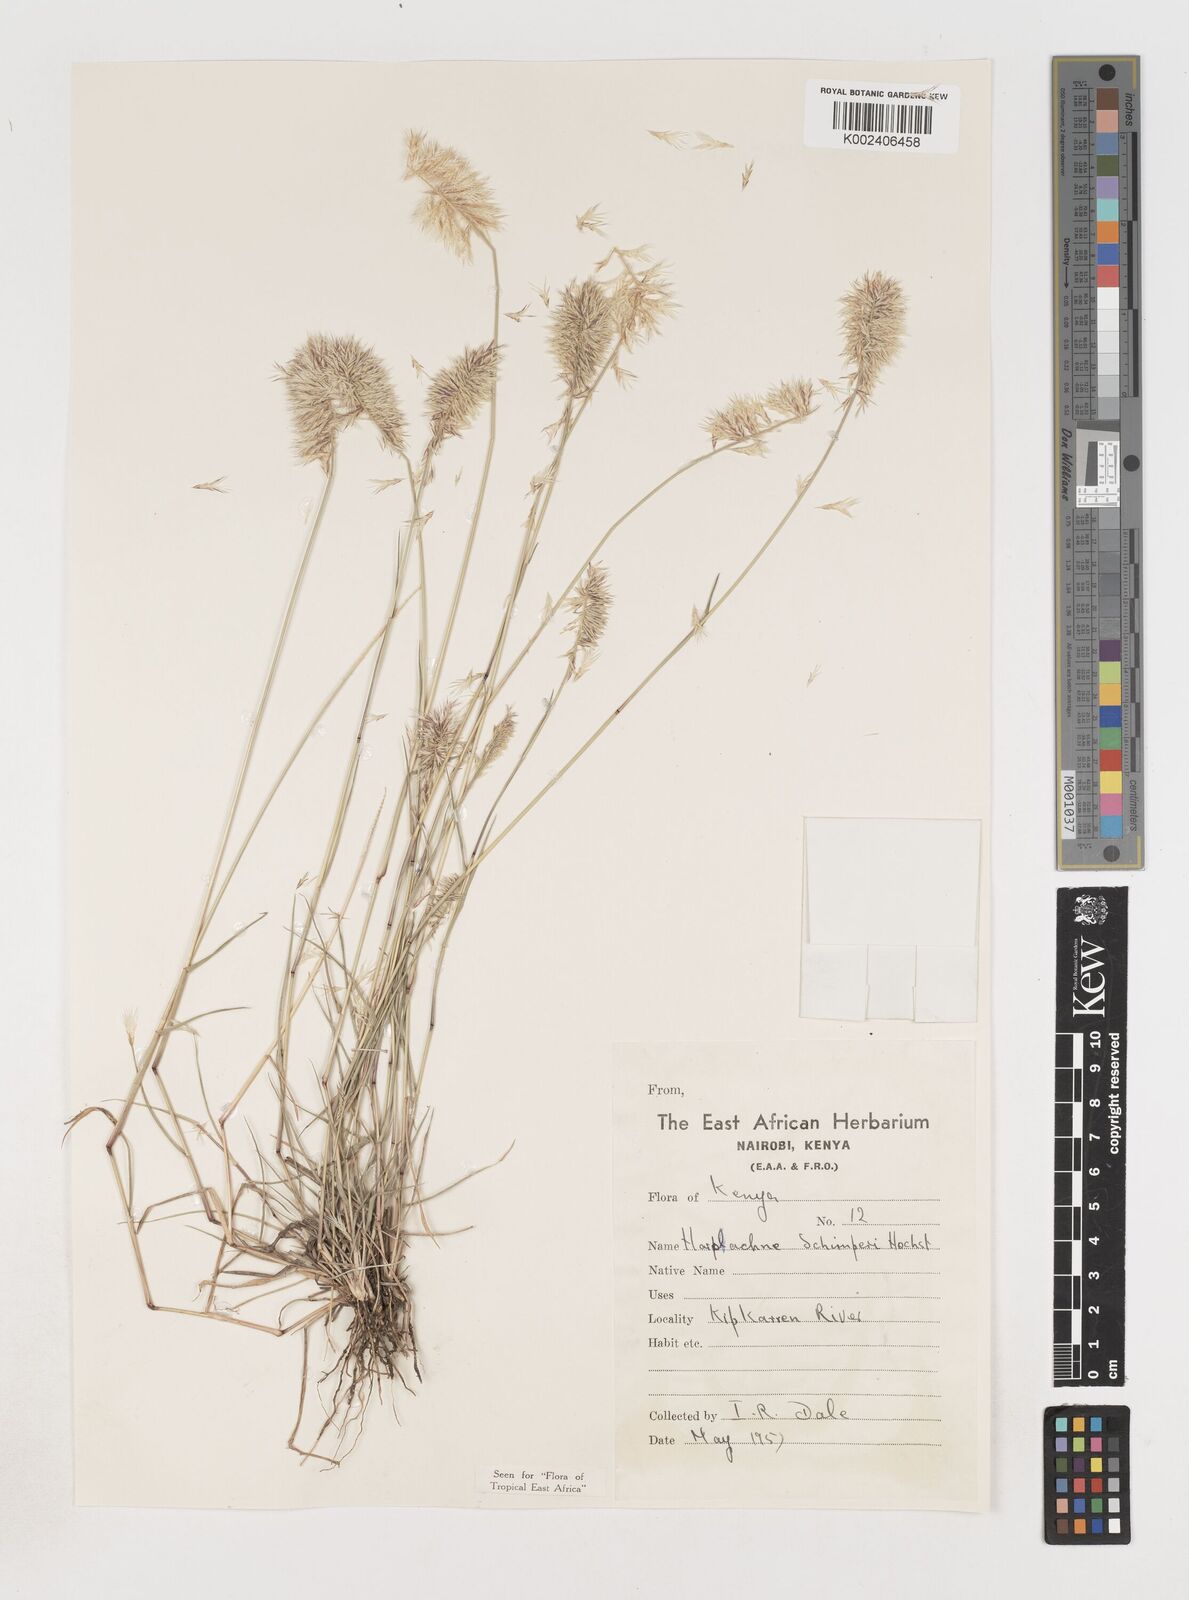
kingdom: Plantae
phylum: Tracheophyta
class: Liliopsida
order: Poales
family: Poaceae
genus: Harpachne
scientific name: Harpachne schimperi
